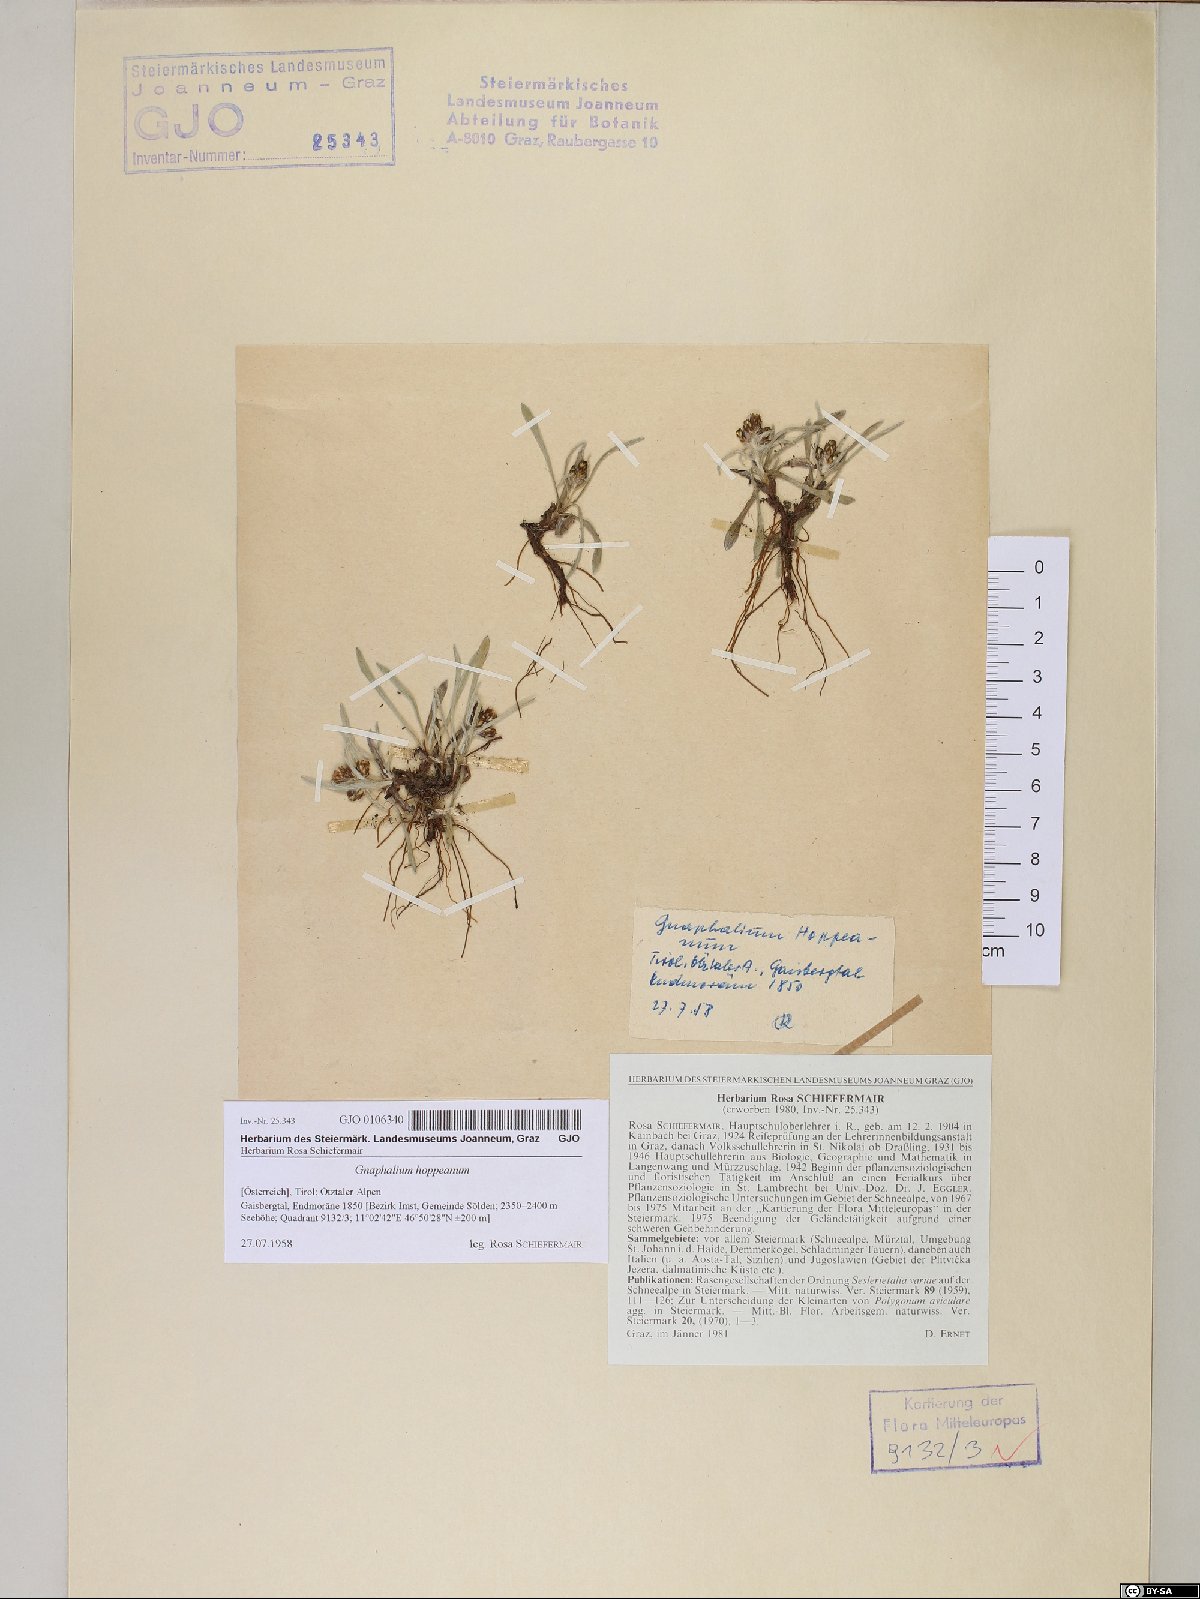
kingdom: Plantae
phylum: Tracheophyta
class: Magnoliopsida
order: Asterales
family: Asteraceae
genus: Omalotheca
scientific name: Omalotheca hoppeana
